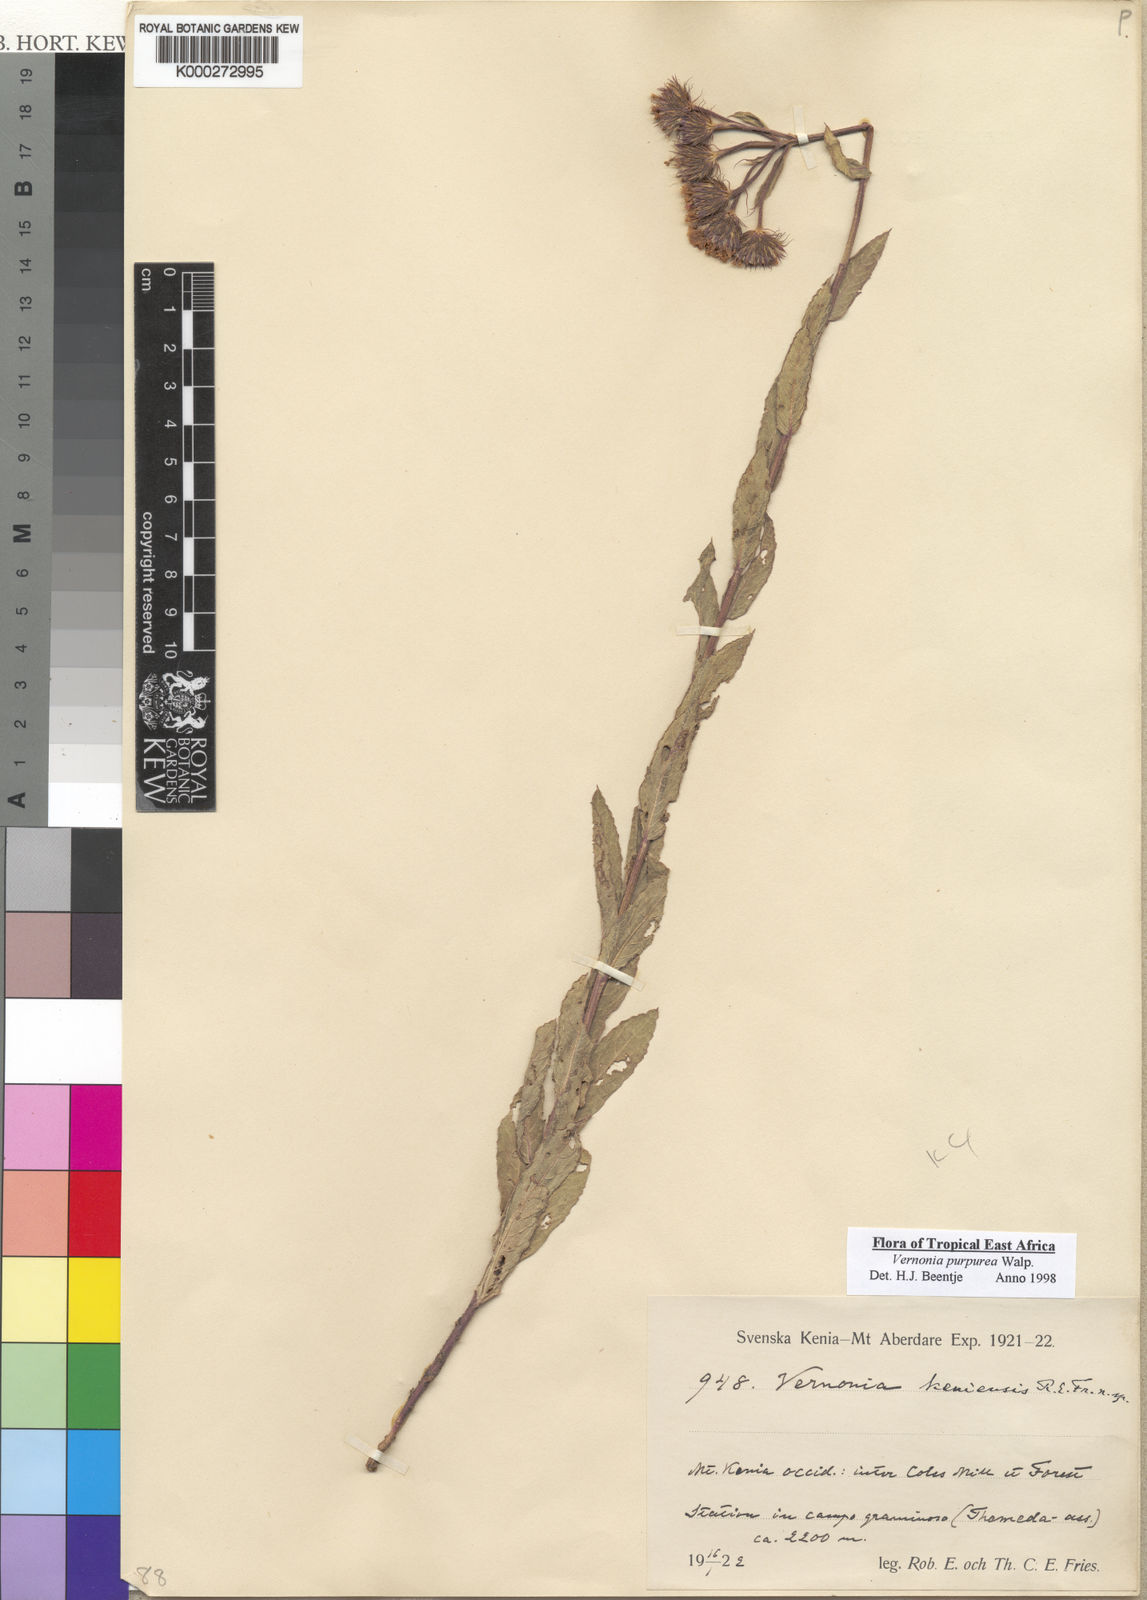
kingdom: Plantae
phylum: Tracheophyta
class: Magnoliopsida
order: Asterales
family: Asteraceae
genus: Nothovernonia
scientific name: Nothovernonia purpurea
